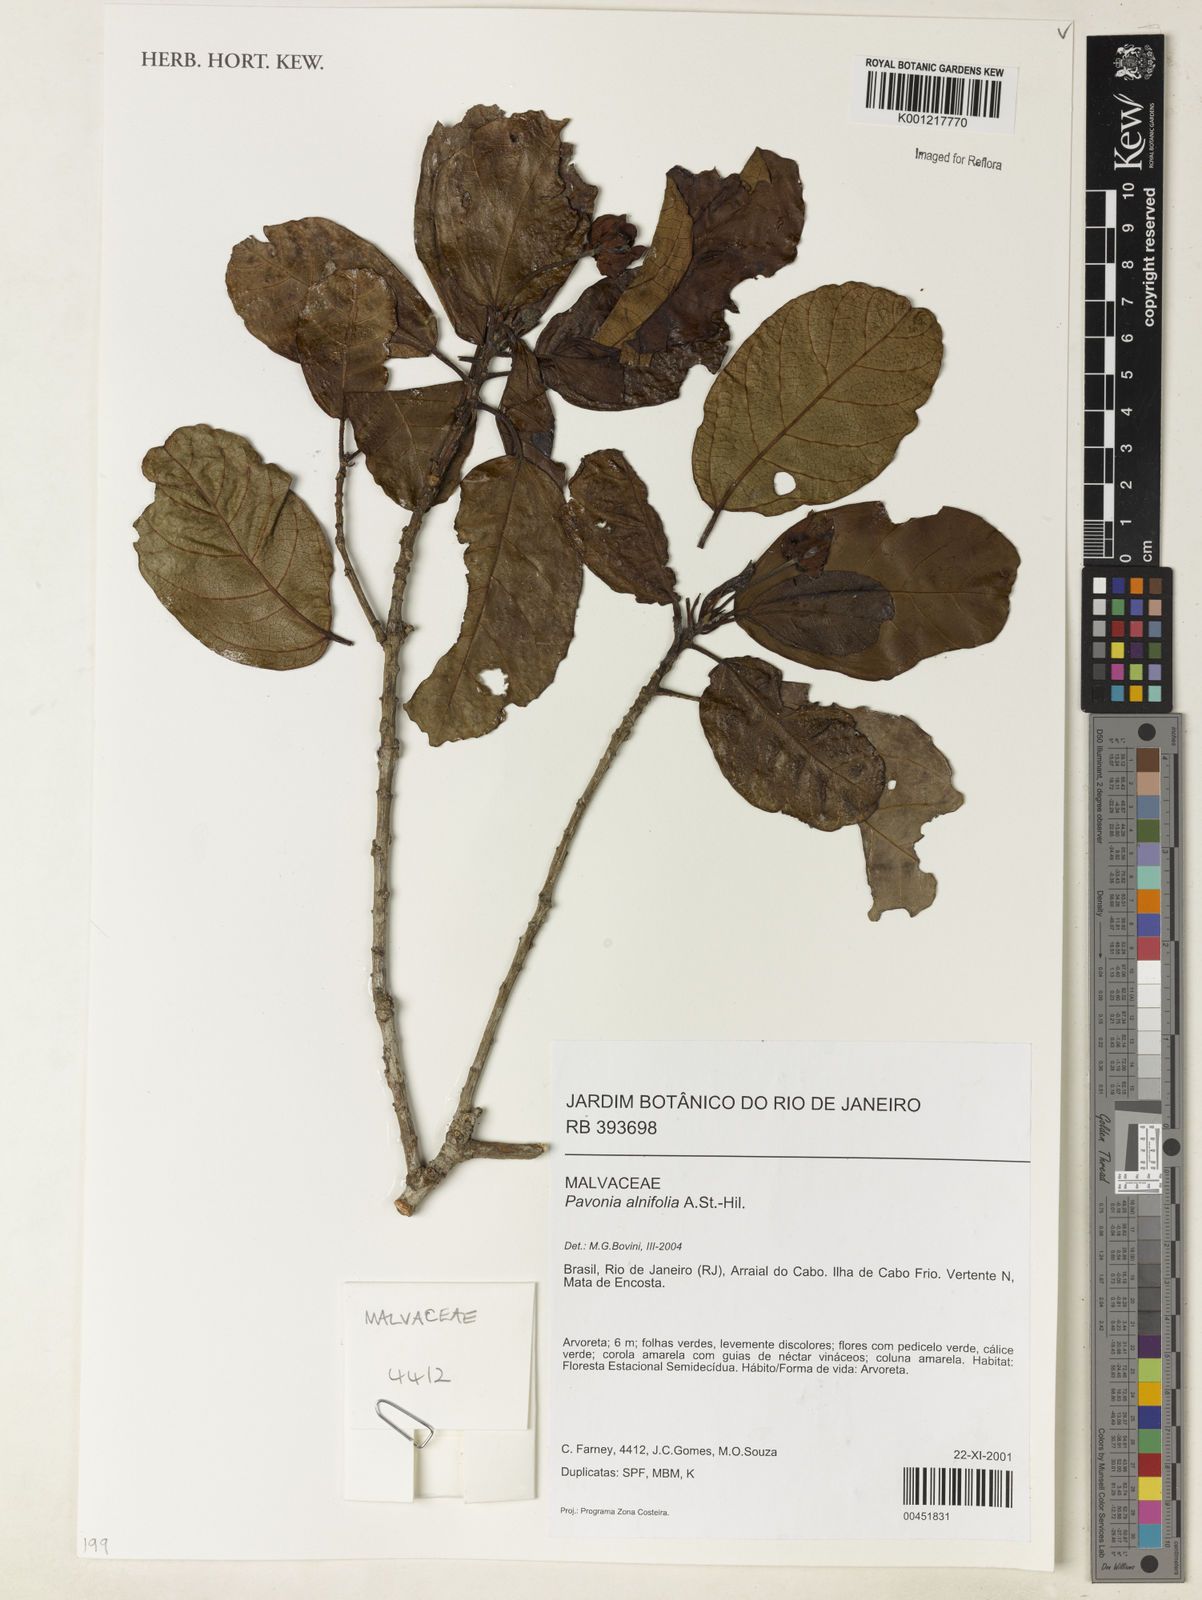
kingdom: Plantae
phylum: Tracheophyta
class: Magnoliopsida
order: Malvales
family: Malvaceae
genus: Pavonia
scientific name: Pavonia alnifolia
